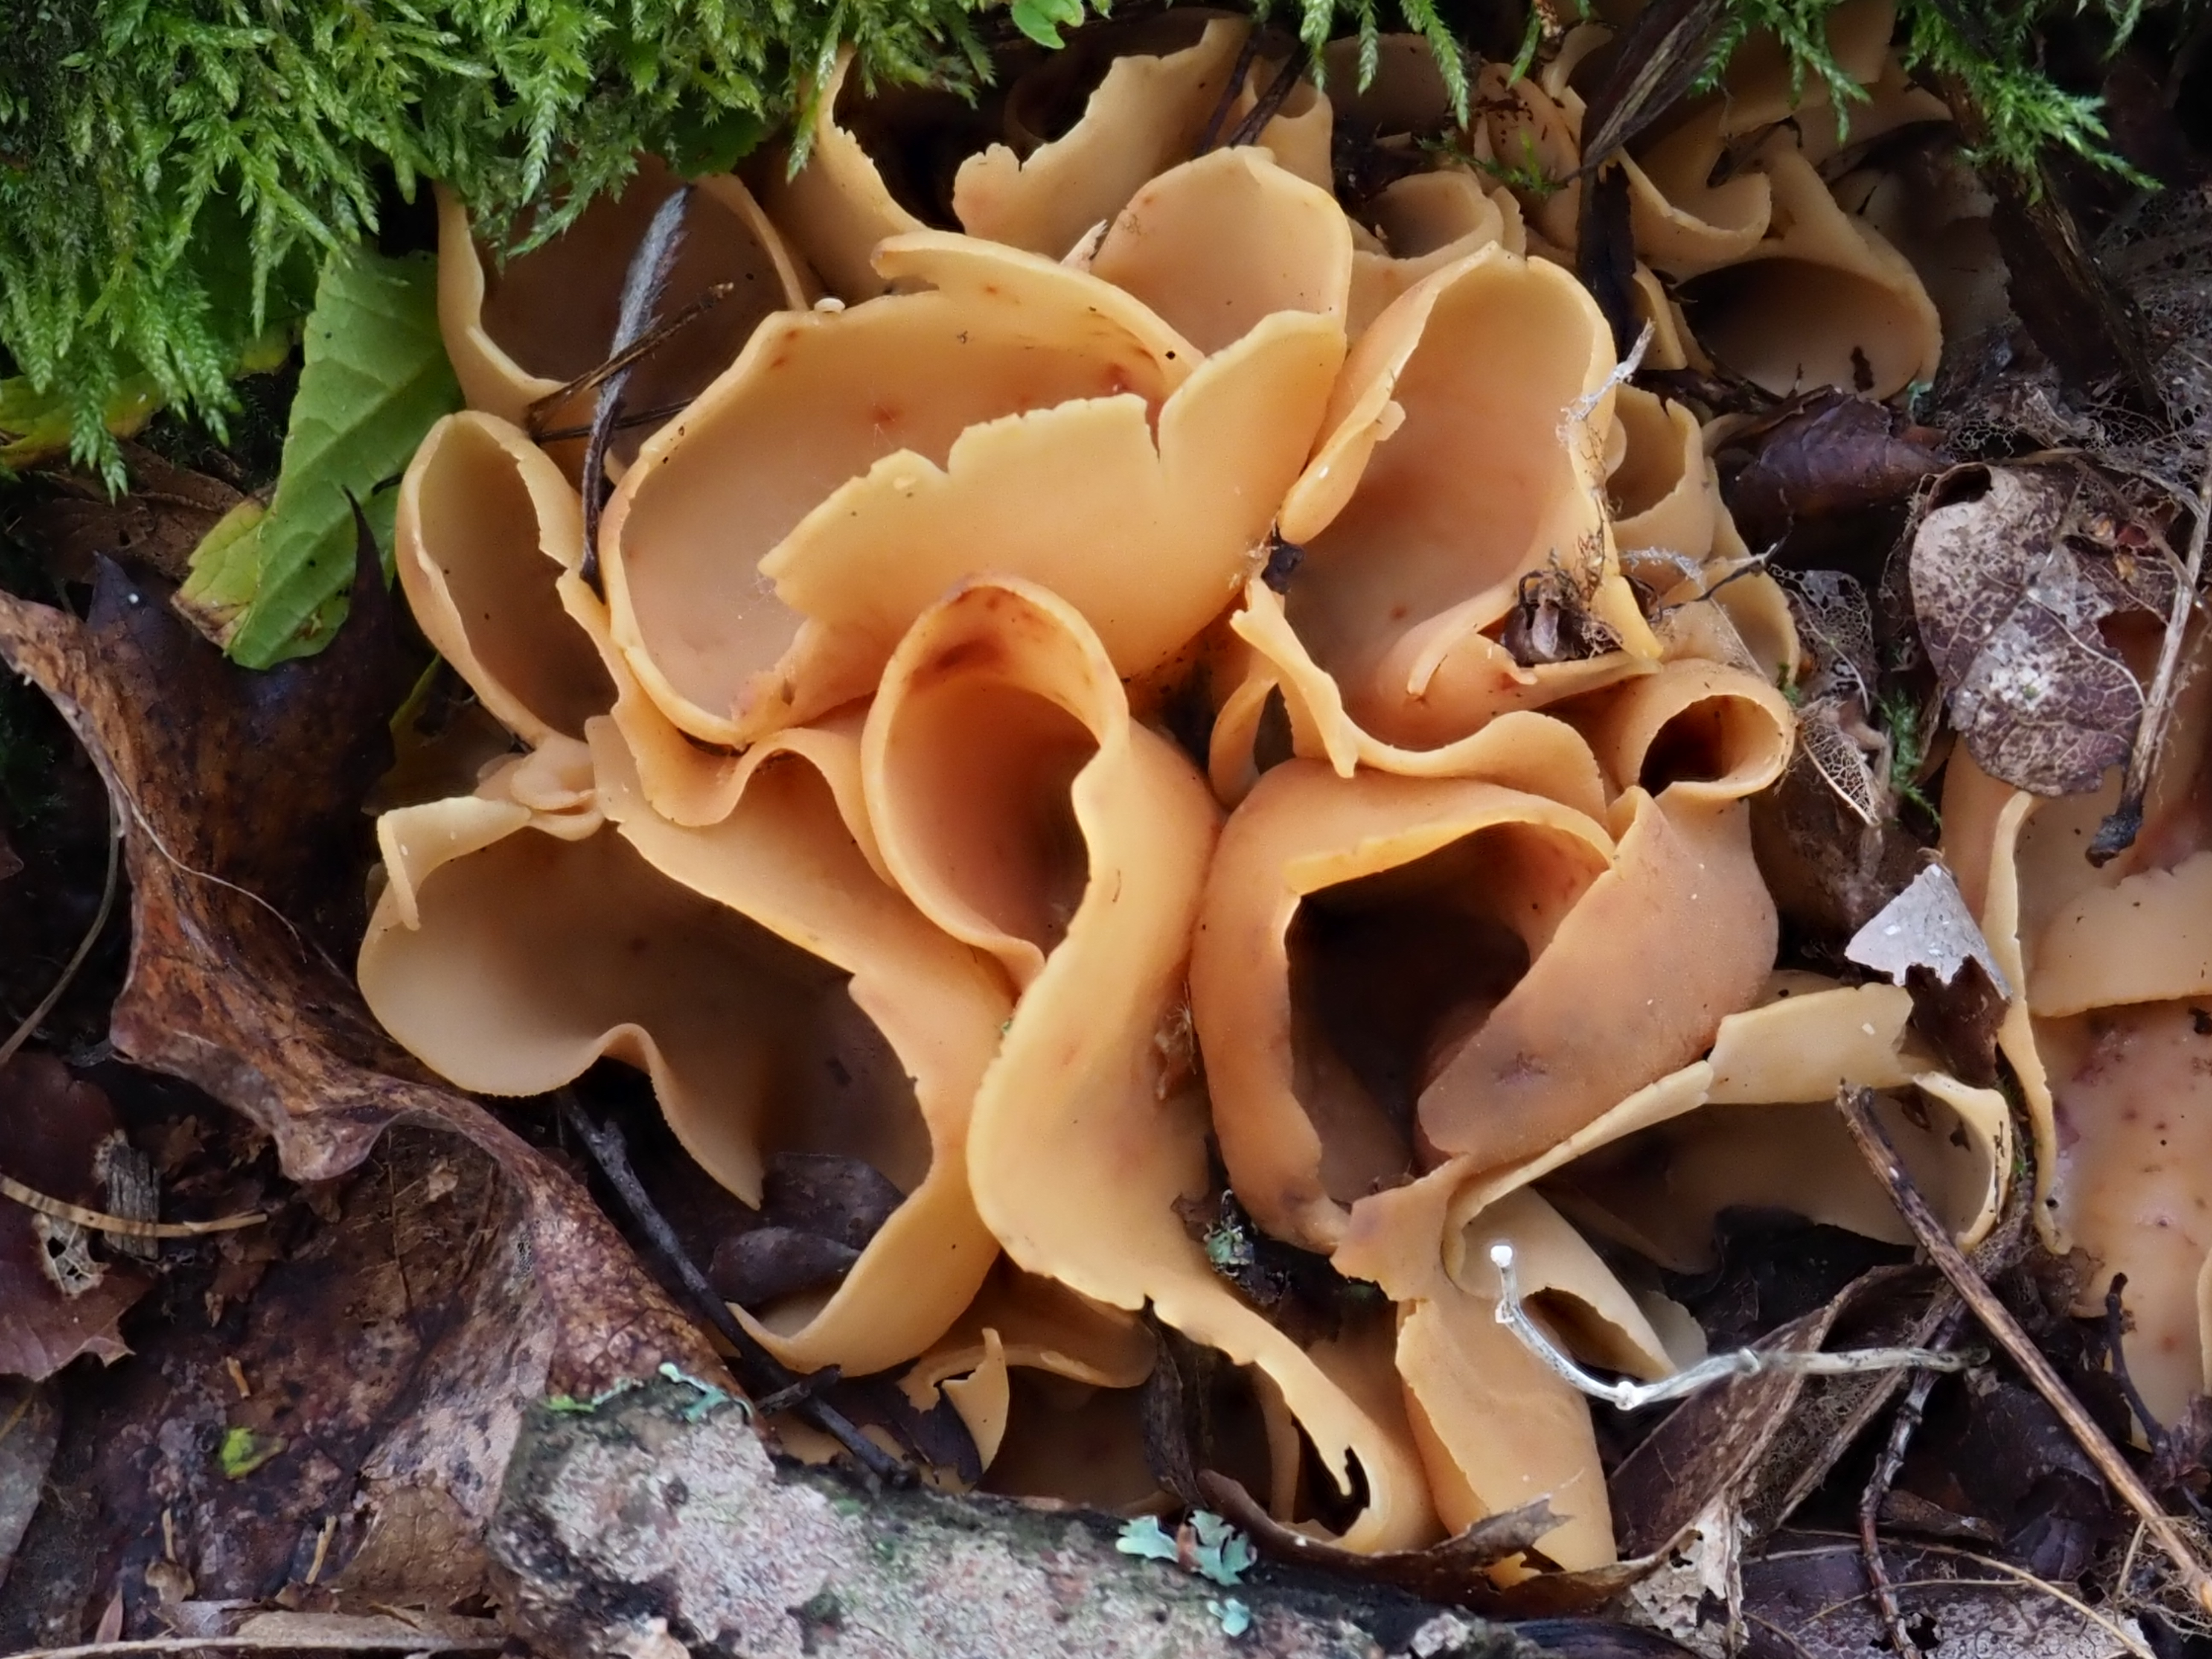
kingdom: Fungi
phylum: Ascomycota
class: Pezizomycetes
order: Pezizales
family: Otideaceae
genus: Otidea
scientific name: Otidea
